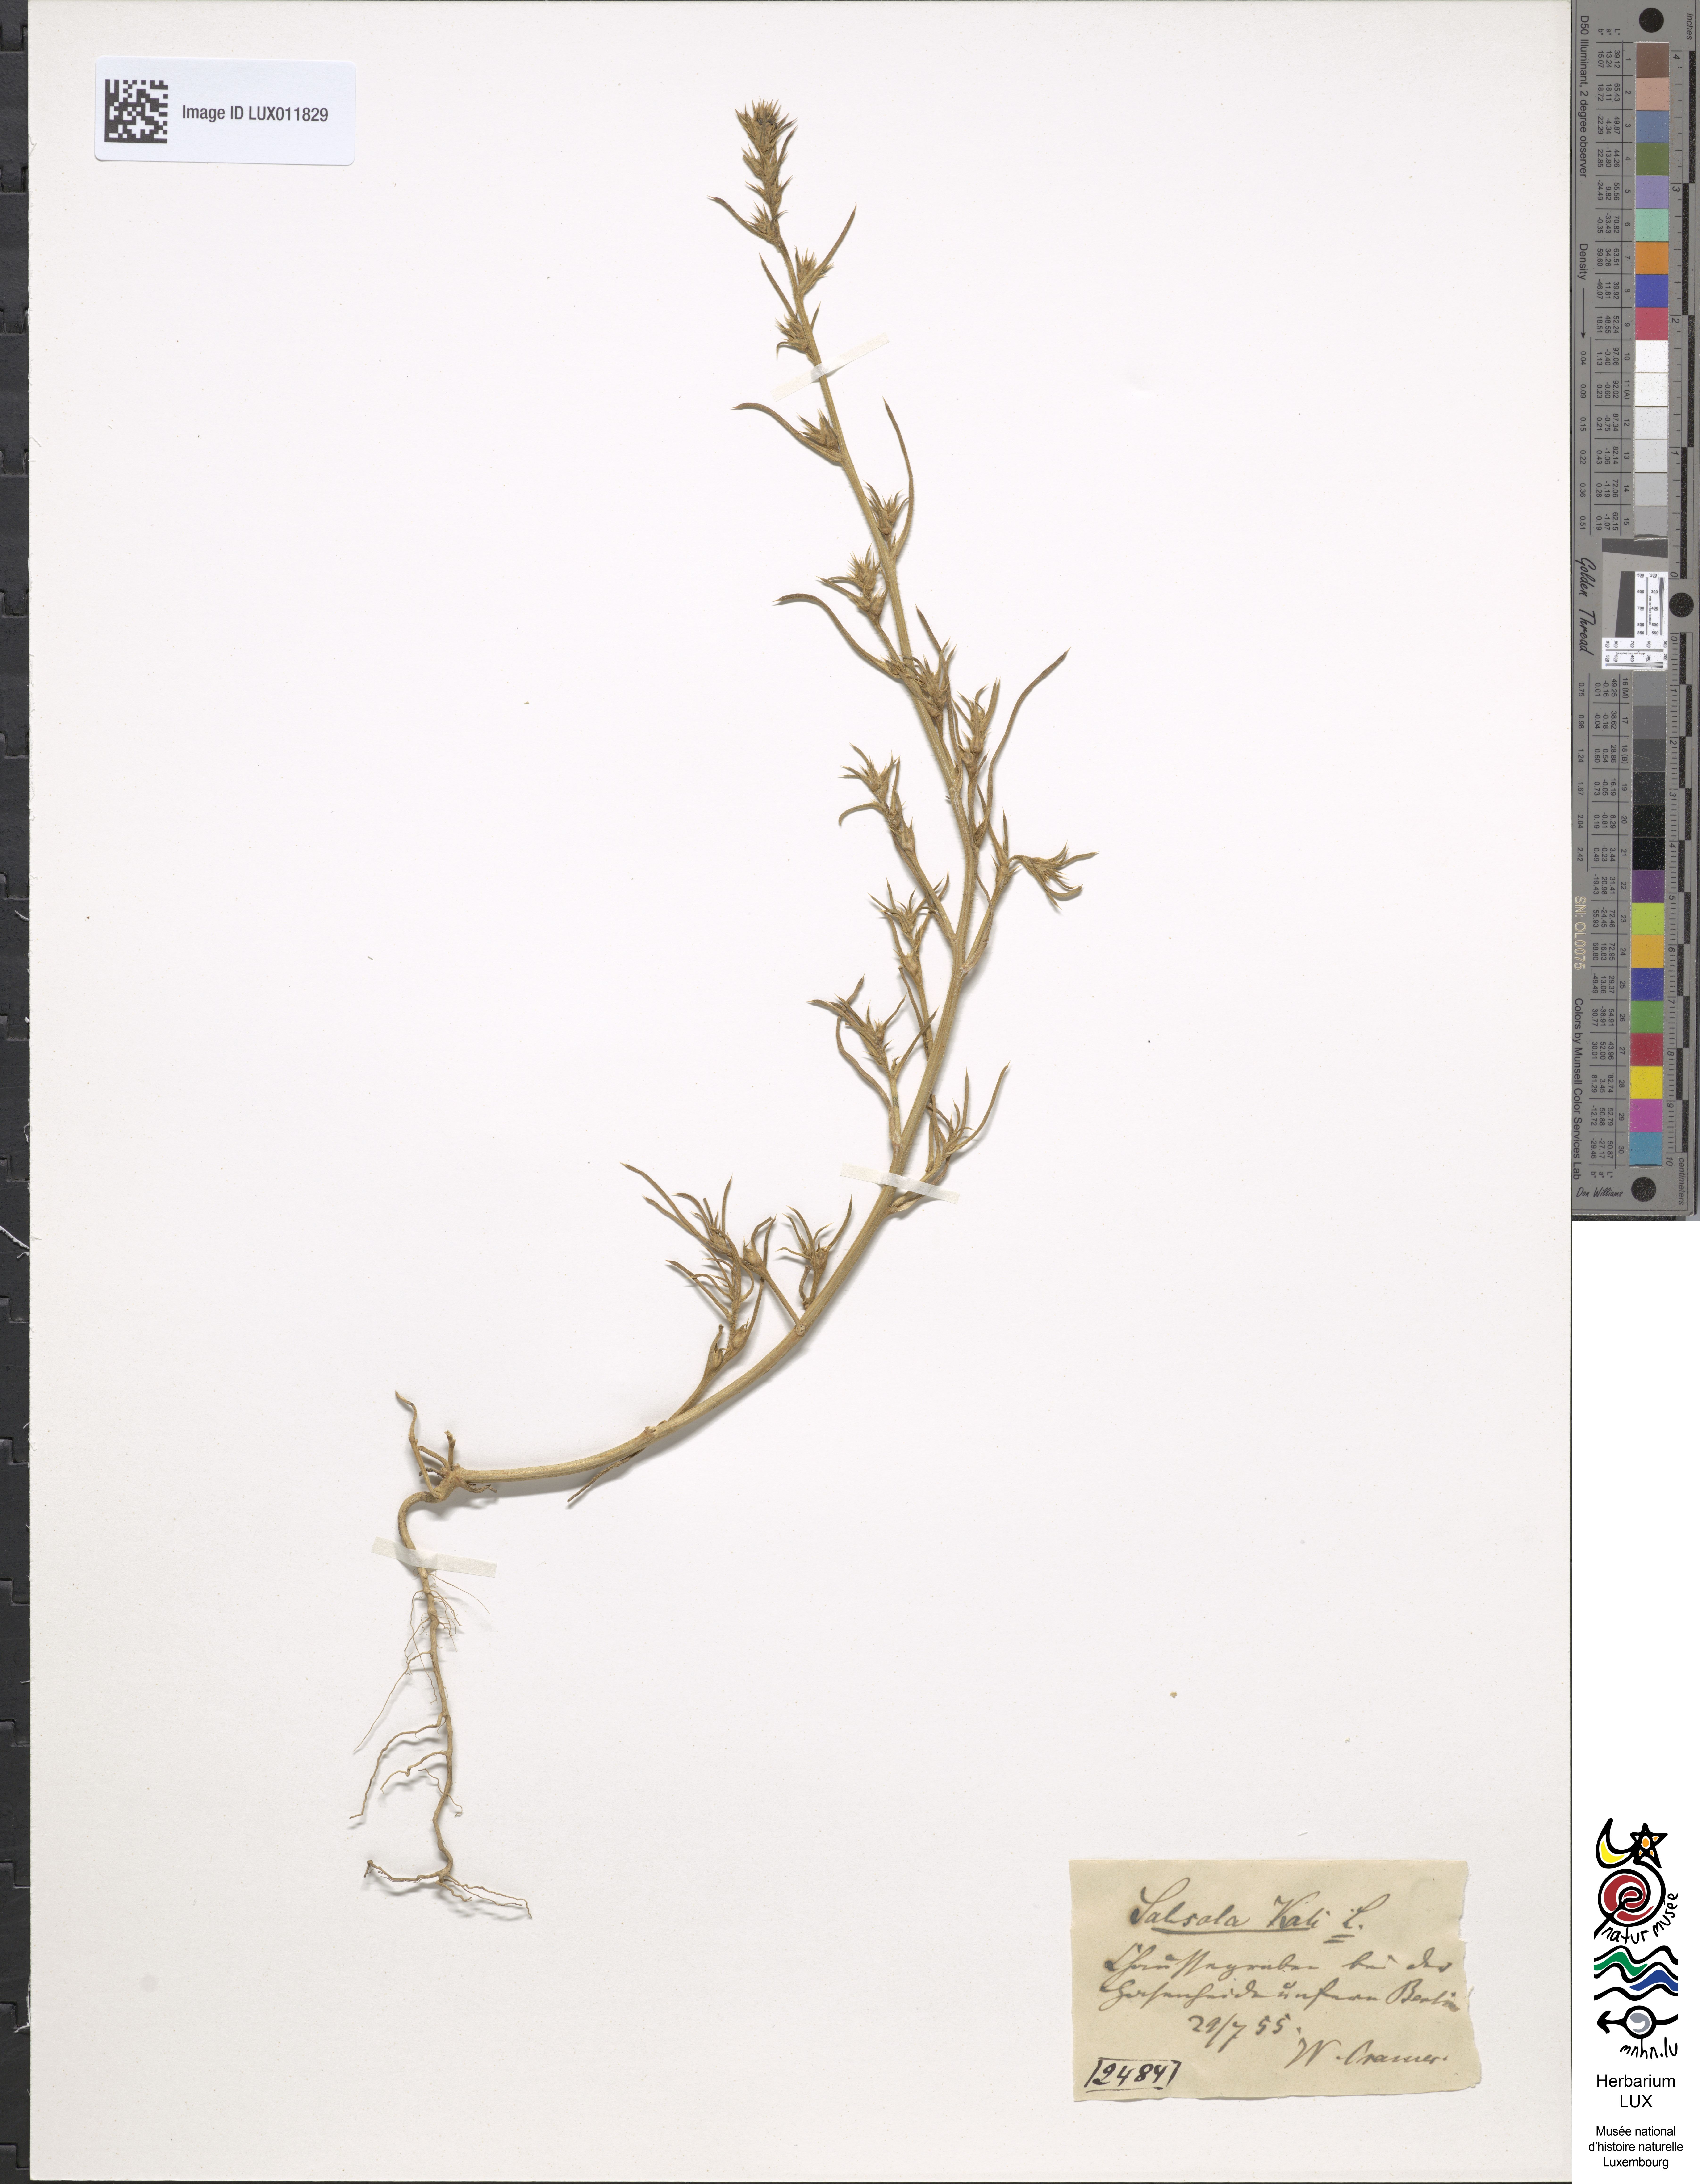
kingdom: Plantae
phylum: Tracheophyta
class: Magnoliopsida
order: Caryophyllales
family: Amaranthaceae
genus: Salsola
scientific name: Salsola kali
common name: Saltwort
